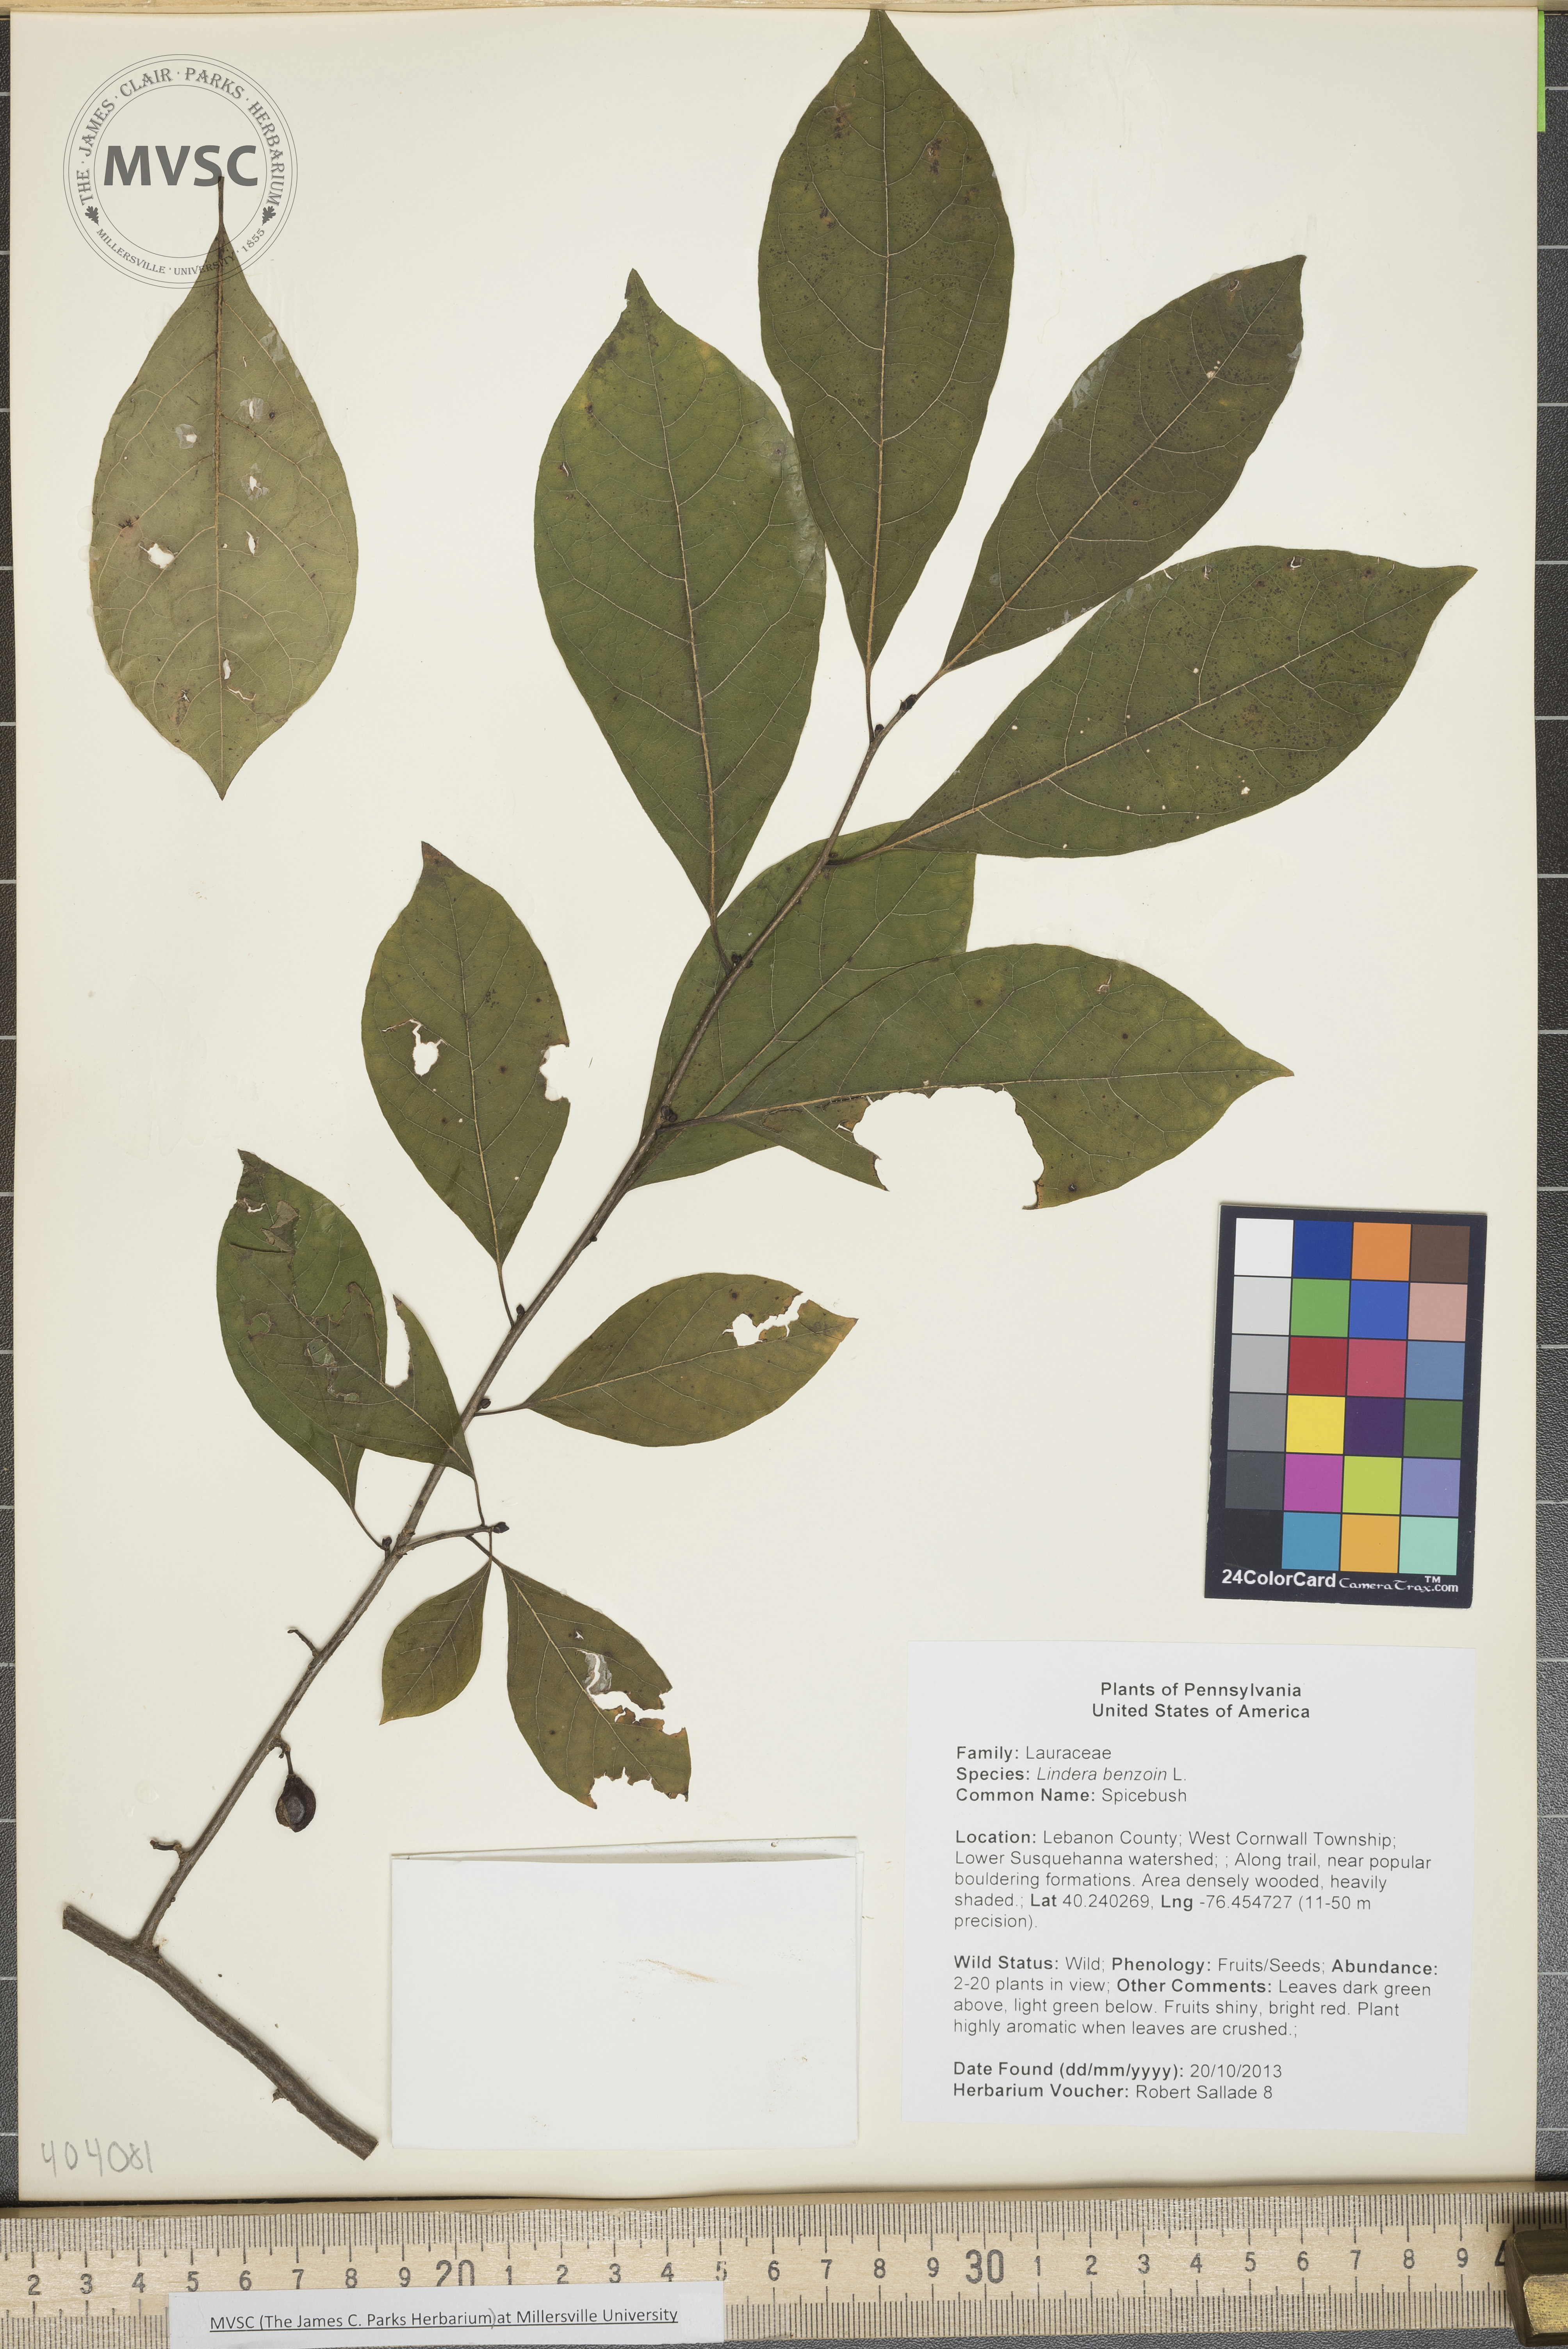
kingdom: Plantae
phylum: Tracheophyta
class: Magnoliopsida
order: Laurales
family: Lauraceae
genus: Lindera
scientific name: Lindera benzoin
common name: Spicebush
